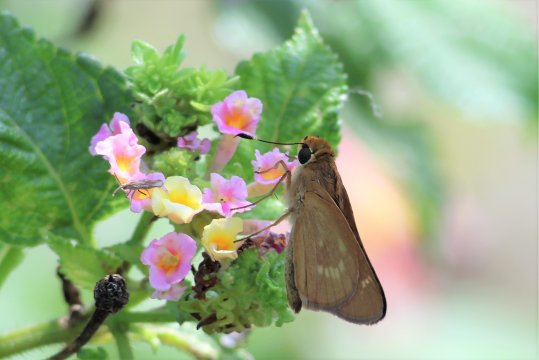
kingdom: Animalia
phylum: Arthropoda
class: Insecta
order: Lepidoptera
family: Hesperiidae
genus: Mellana
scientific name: Mellana eulogius
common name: Common Mellana
